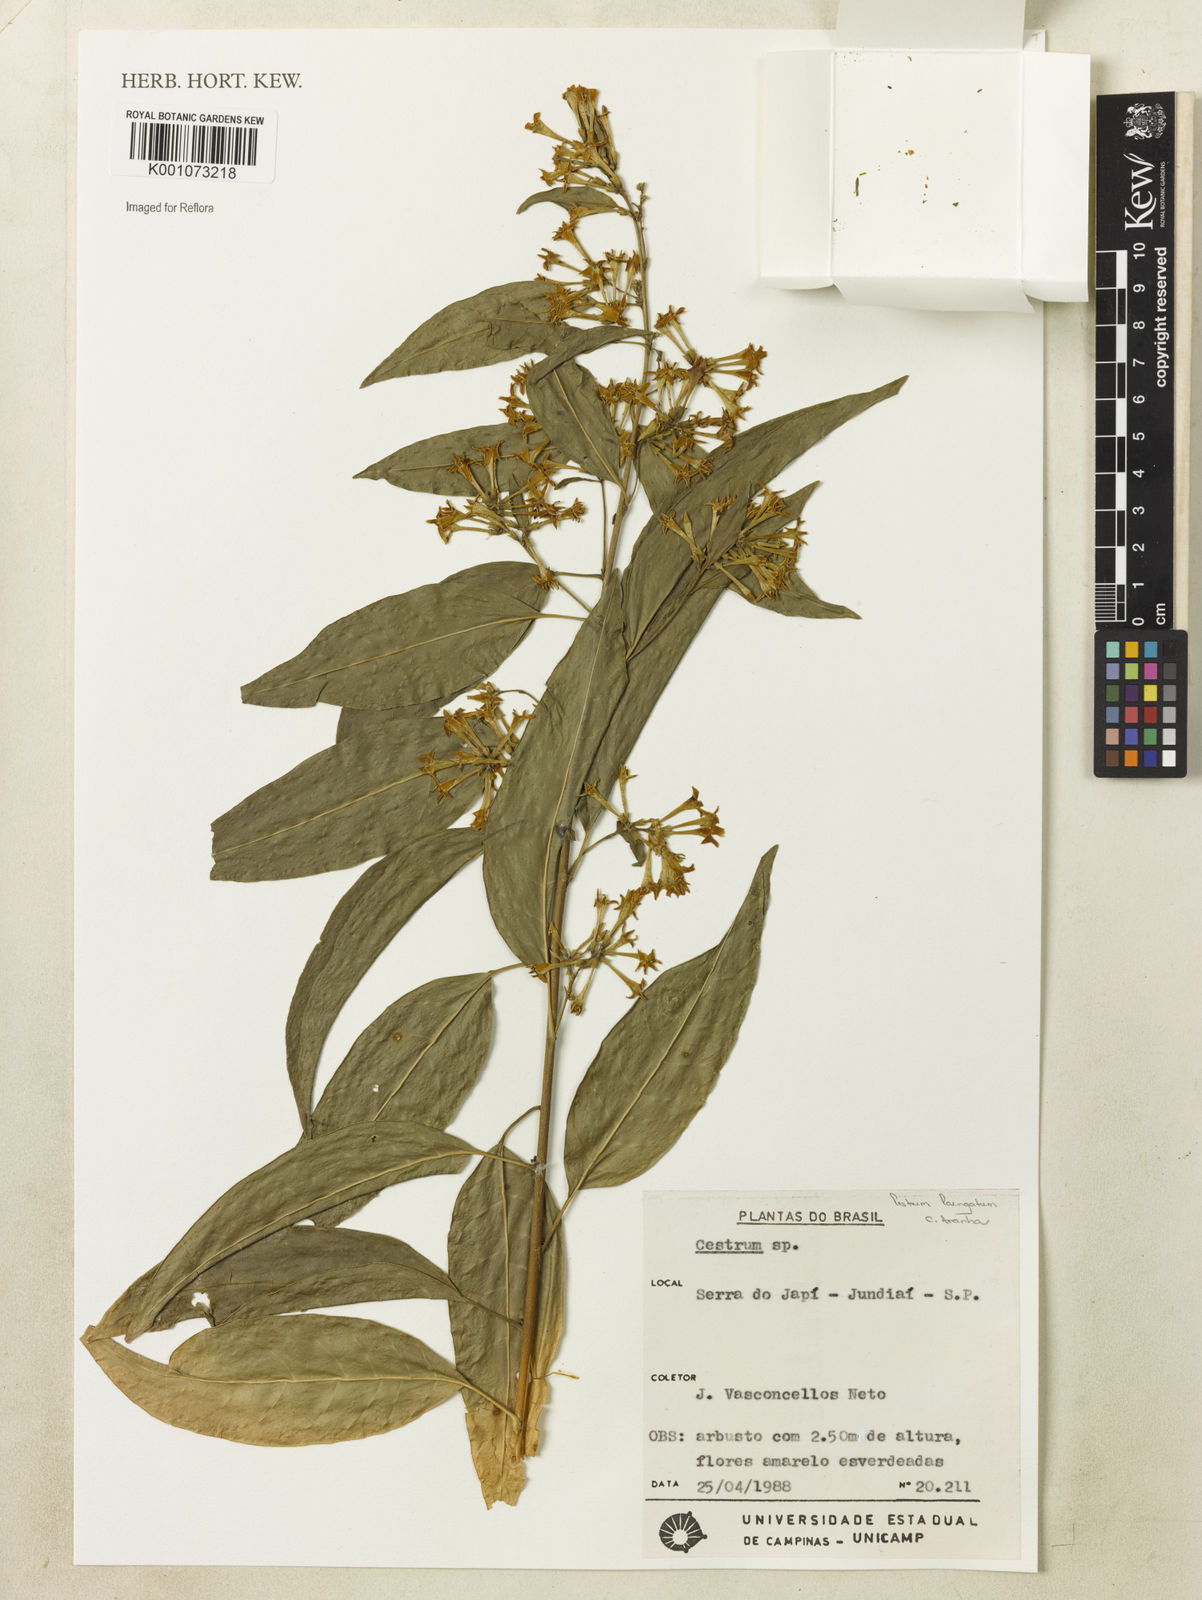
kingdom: Plantae
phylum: Tracheophyta
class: Magnoliopsida
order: Solanales
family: Solanaceae
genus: Cestrum
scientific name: Cestrum laevigatum
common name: Inkberry
